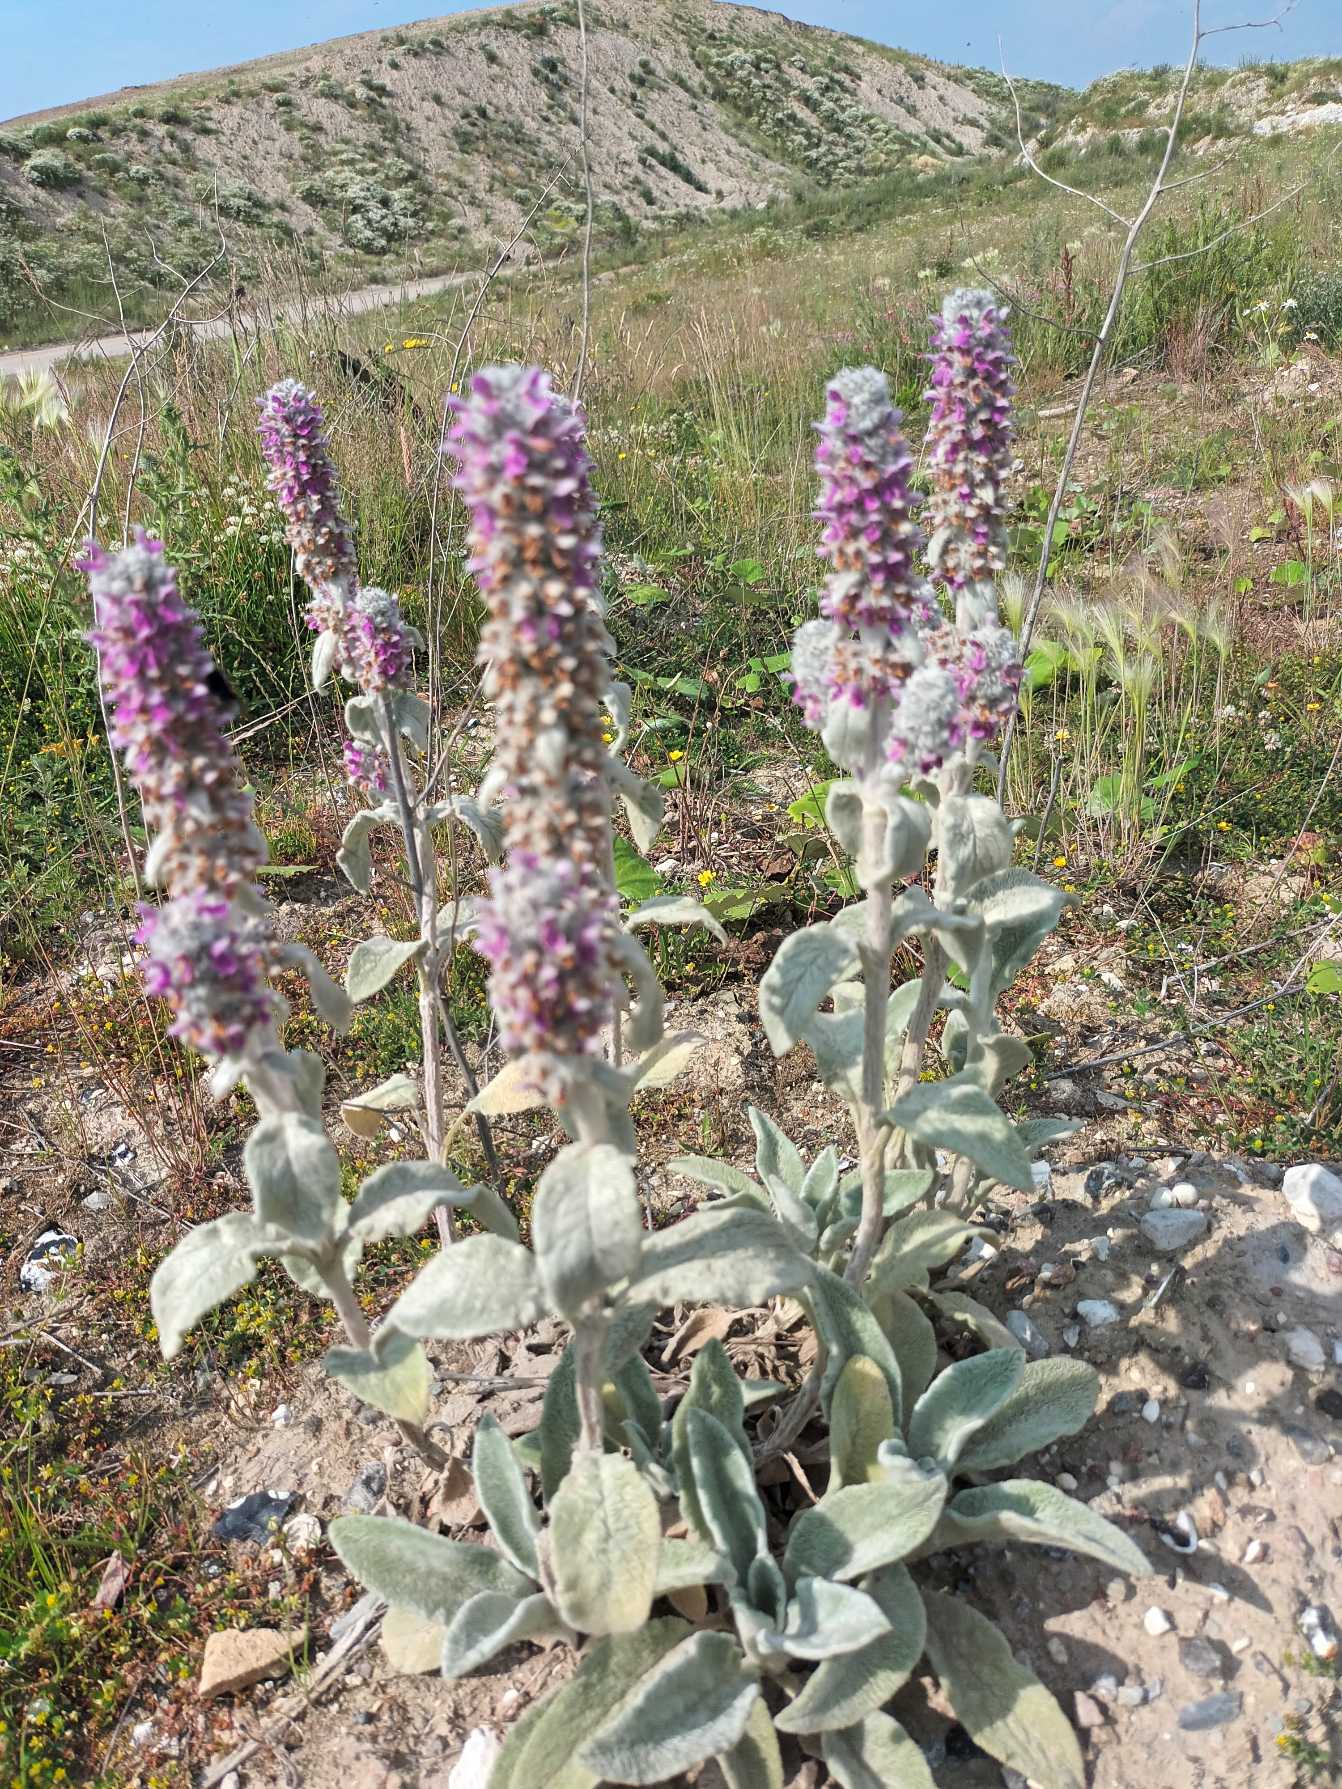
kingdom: Plantae
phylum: Tracheophyta
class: Magnoliopsida
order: Lamiales
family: Lamiaceae
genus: Stachys
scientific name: Stachys byzantina
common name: Lammeøre
